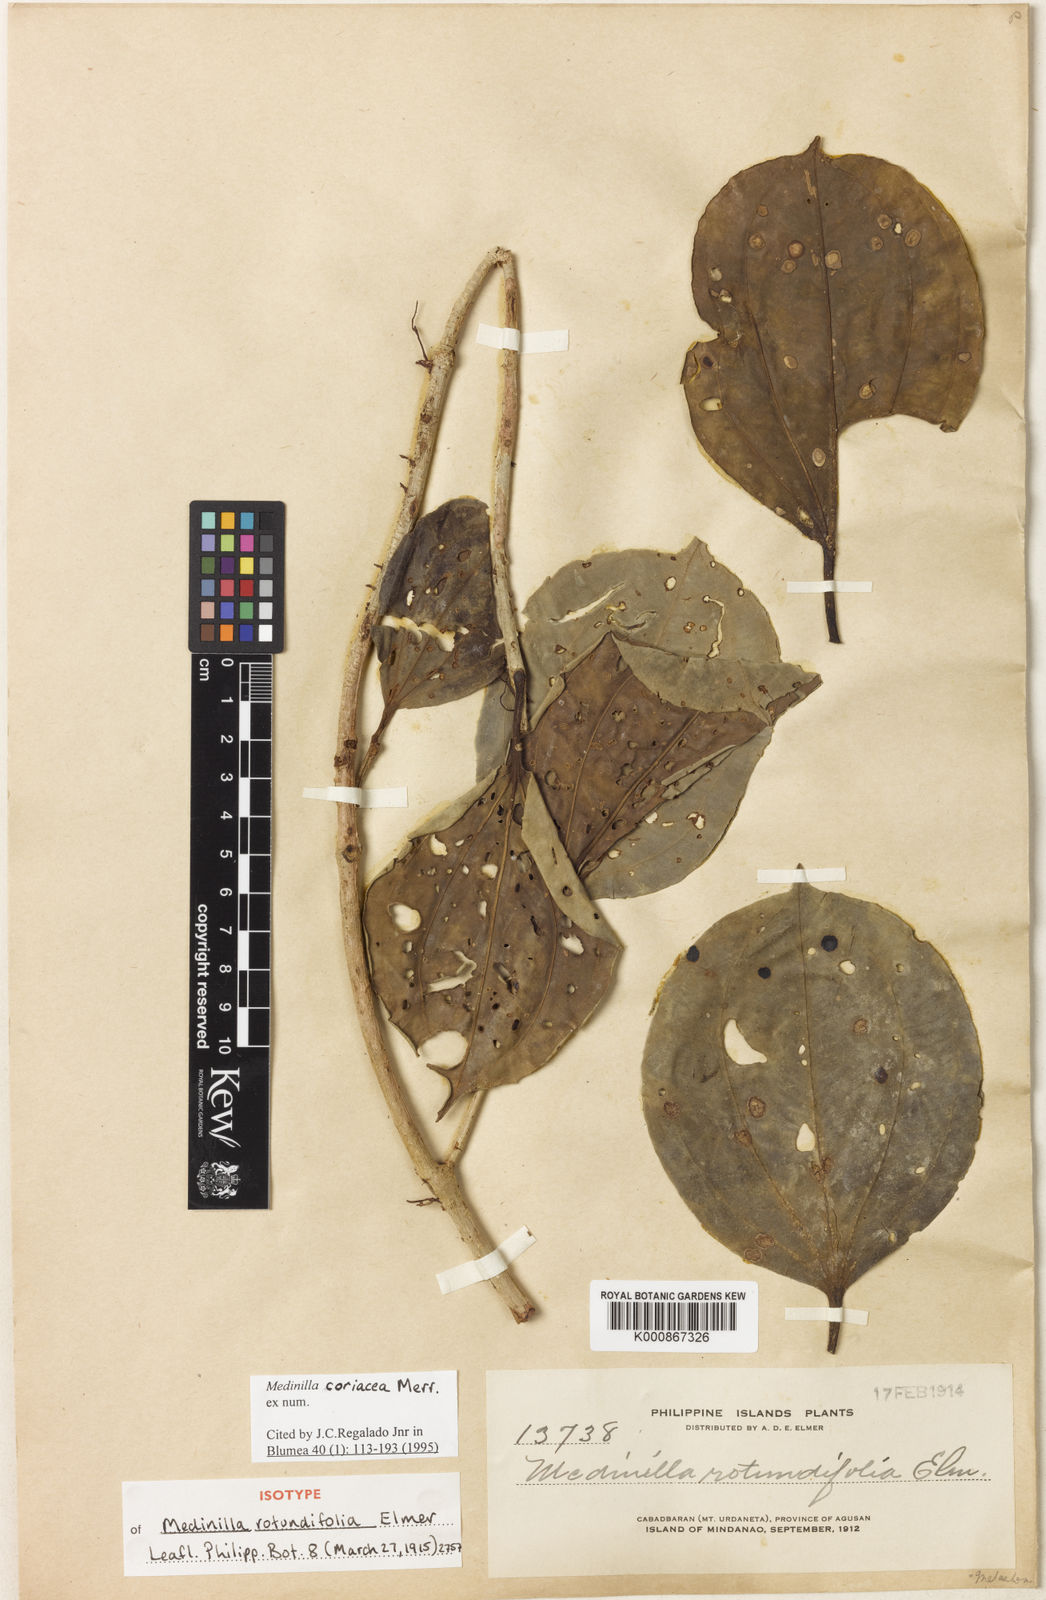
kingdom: Plantae
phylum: Tracheophyta
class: Magnoliopsida
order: Myrtales
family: Melastomataceae
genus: Medinilla
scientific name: Medinilla coriacea
